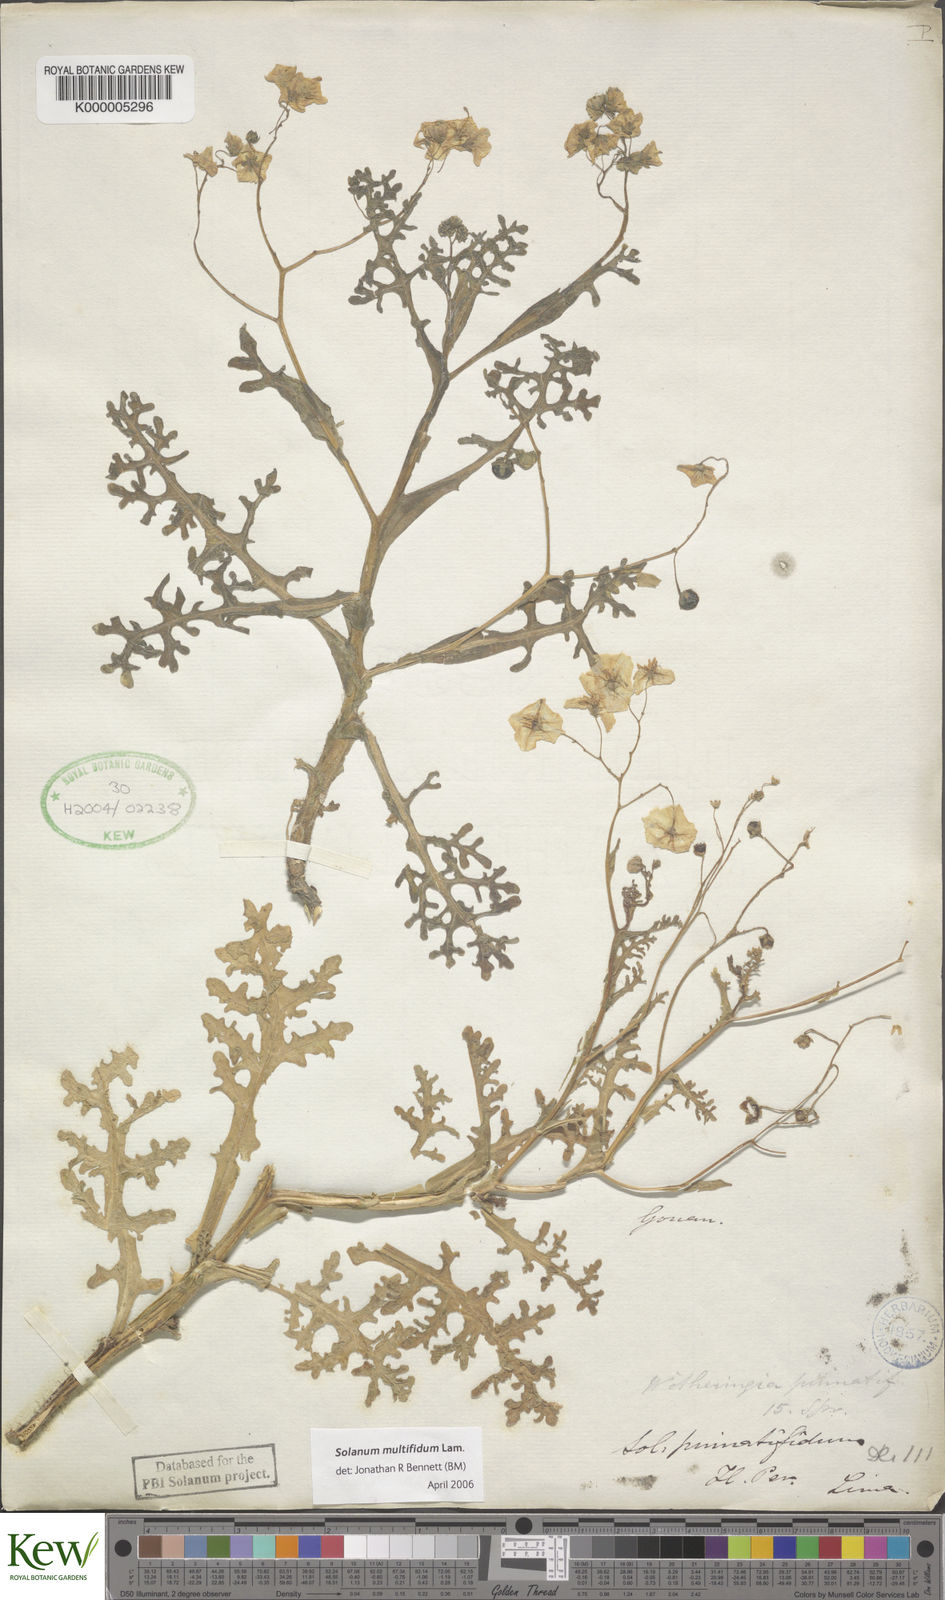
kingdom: Plantae
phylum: Tracheophyta
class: Magnoliopsida
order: Solanales
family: Solanaceae
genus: Solanum
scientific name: Solanum multifidum
